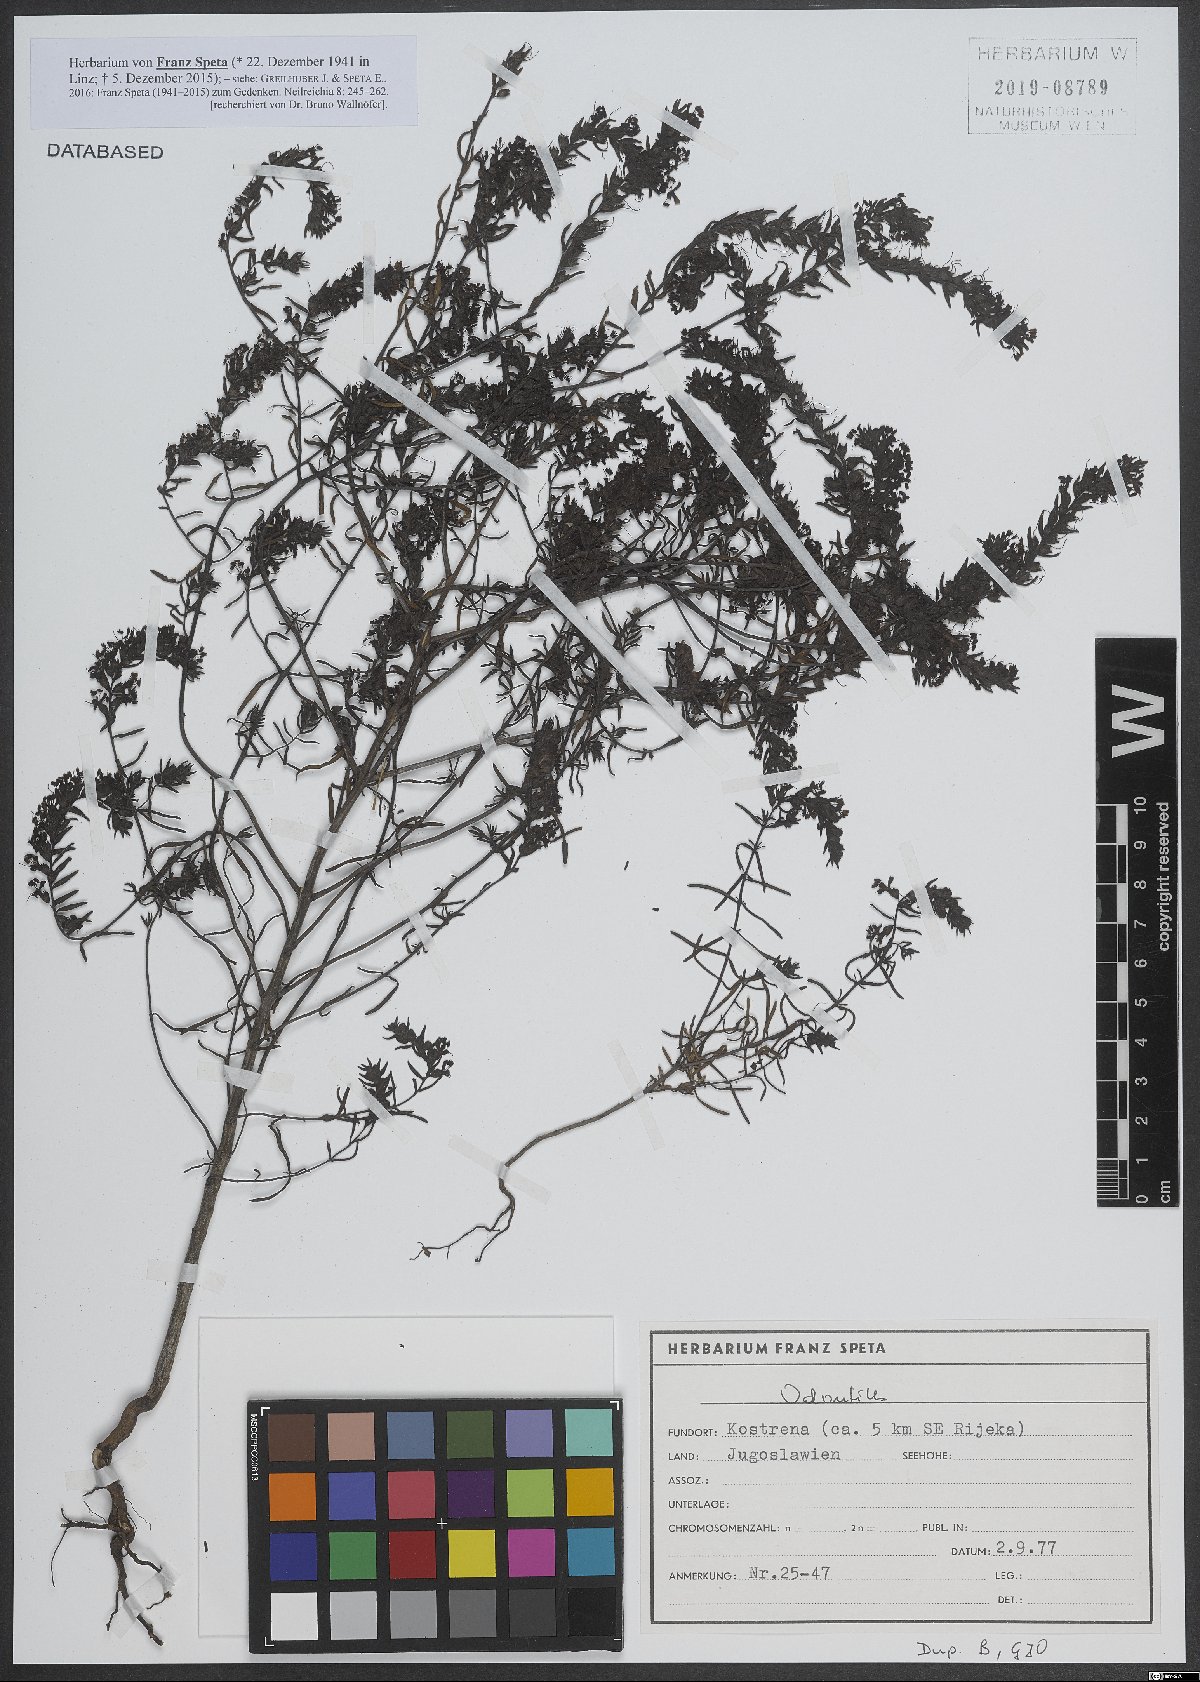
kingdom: Plantae
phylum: Tracheophyta
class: Magnoliopsida
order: Lamiales
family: Orobanchaceae
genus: Odontites
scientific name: Odontites
